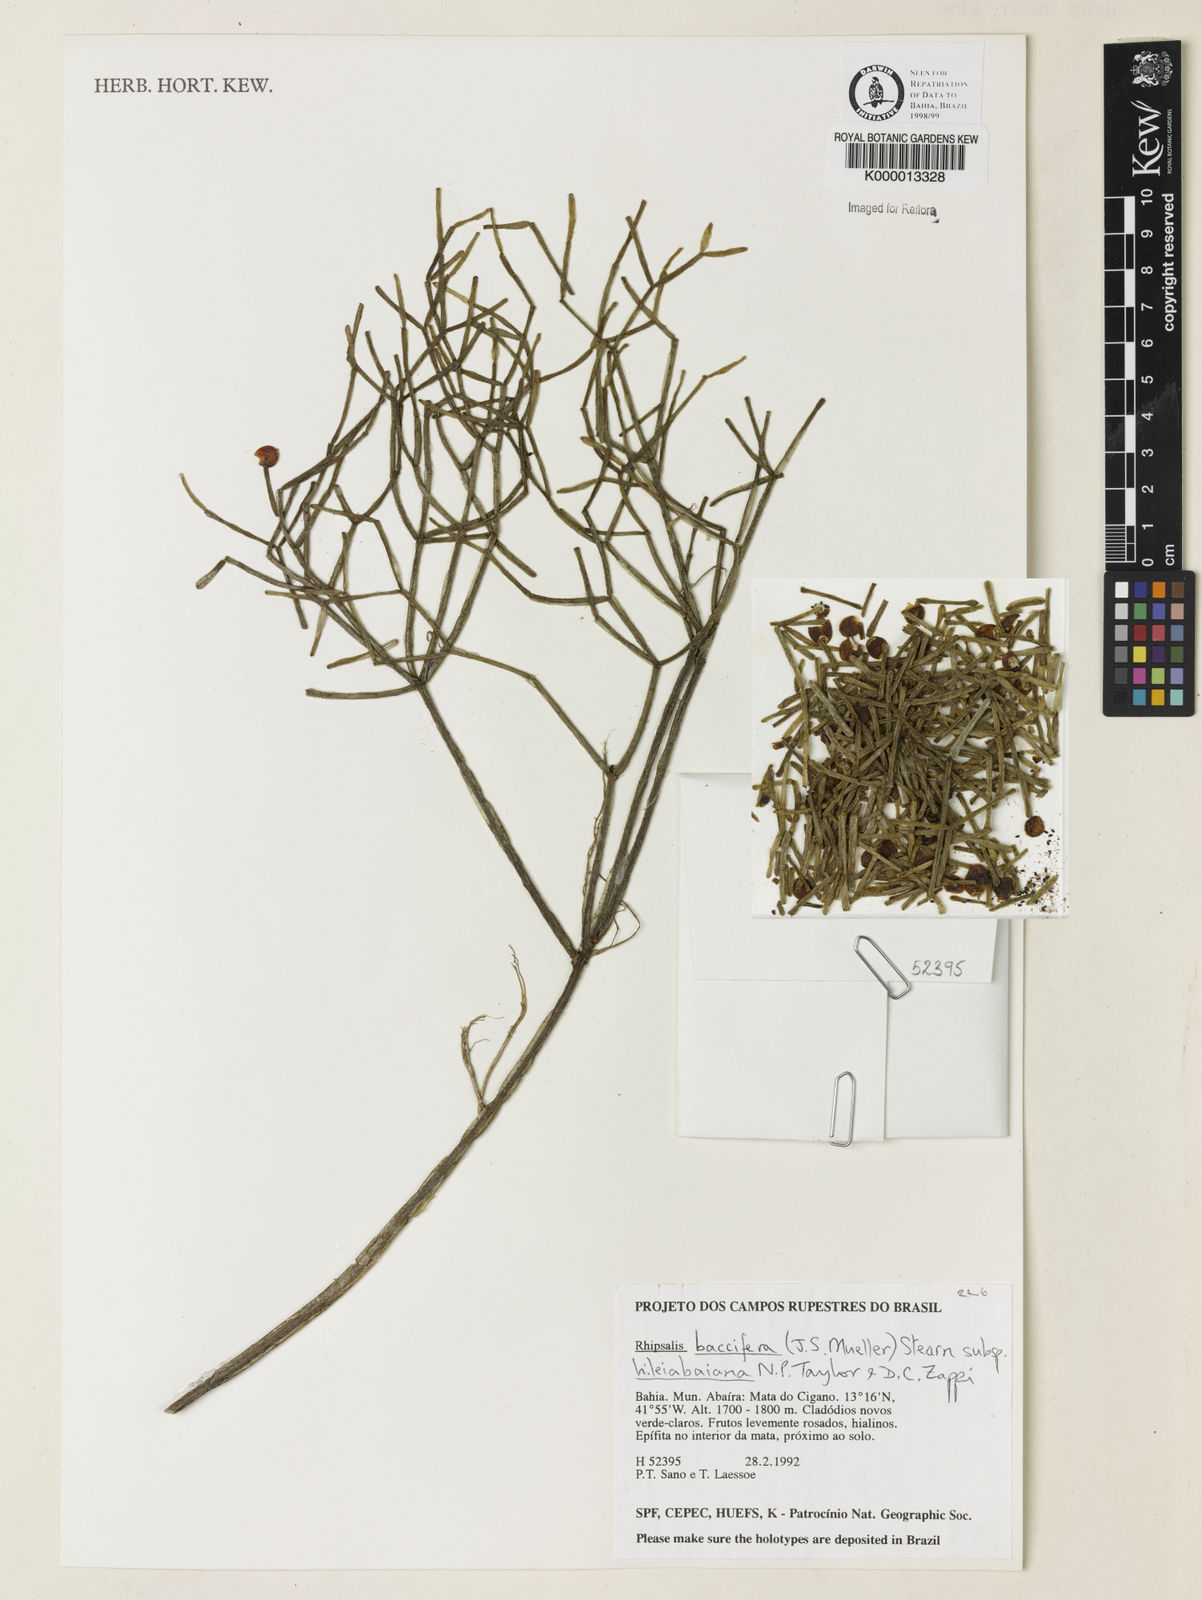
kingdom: Plantae
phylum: Tracheophyta
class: Magnoliopsida
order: Caryophyllales
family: Cactaceae
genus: Rhipsalis
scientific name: Rhipsalis hileiabaiana
